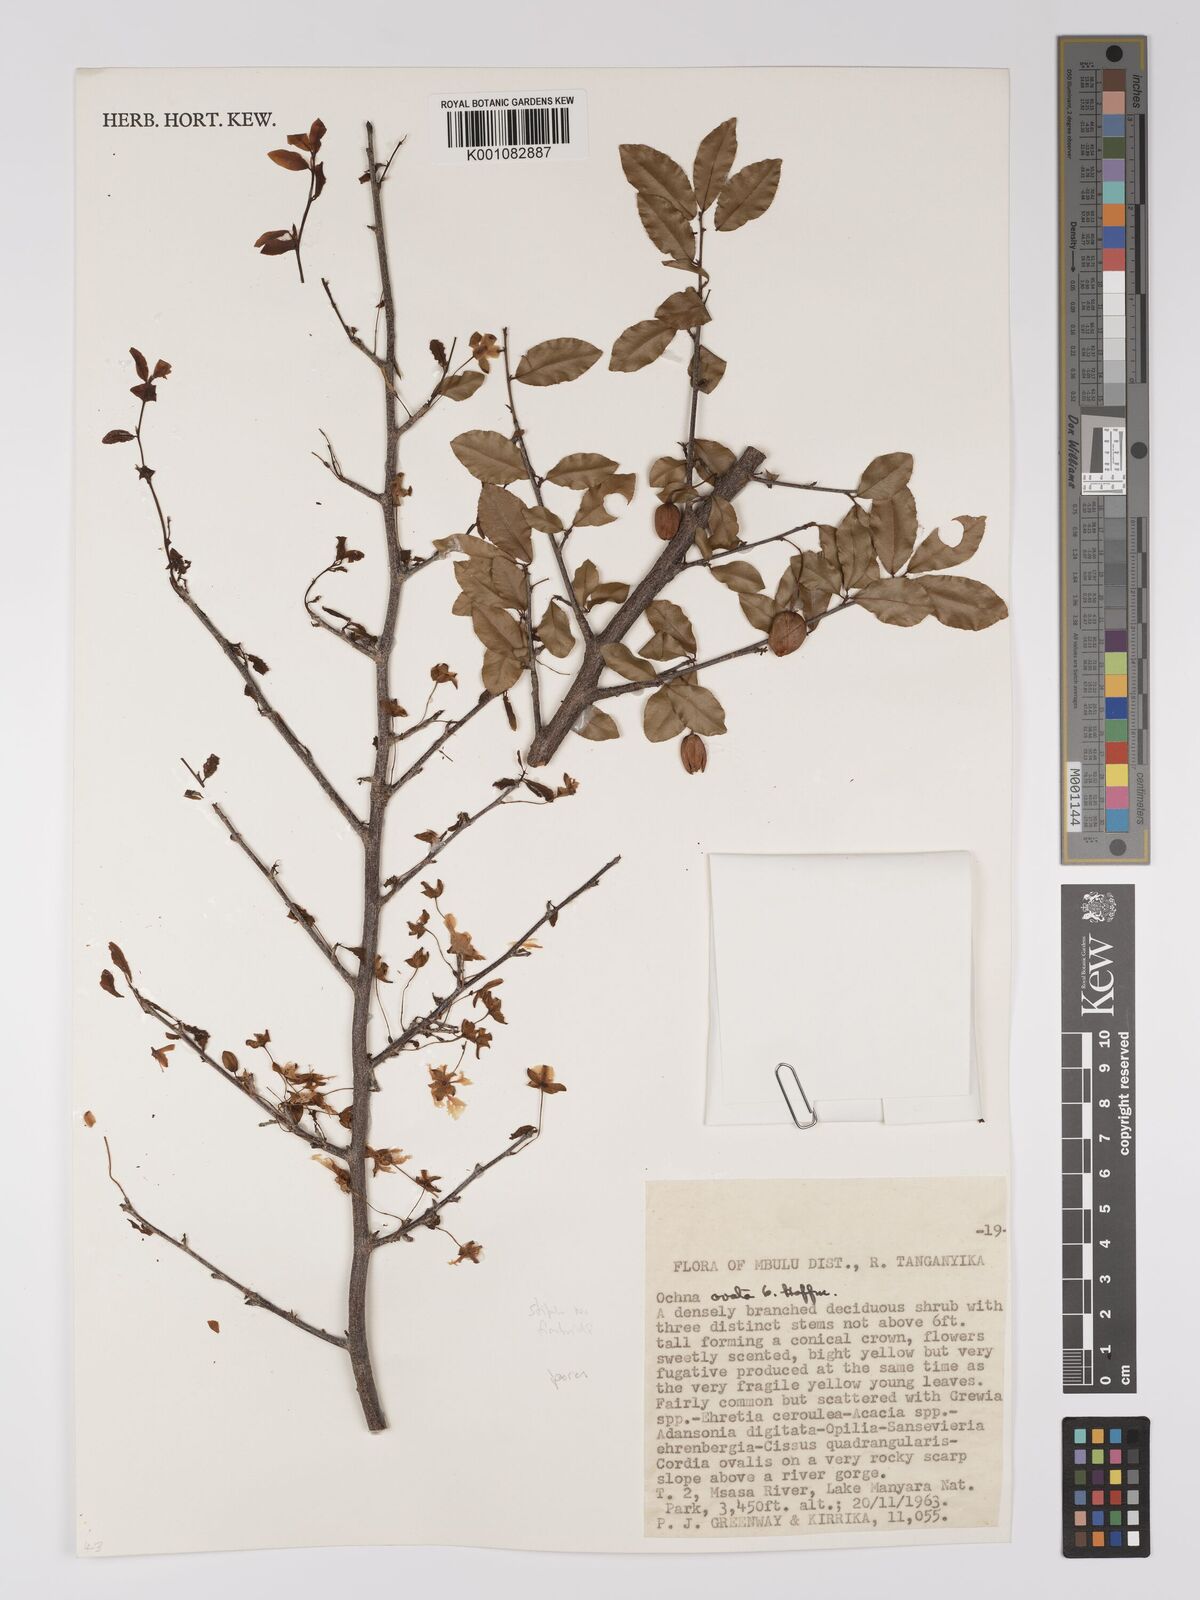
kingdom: Plantae
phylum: Tracheophyta
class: Magnoliopsida
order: Malpighiales
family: Ochnaceae
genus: Ochna
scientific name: Ochna ovata
